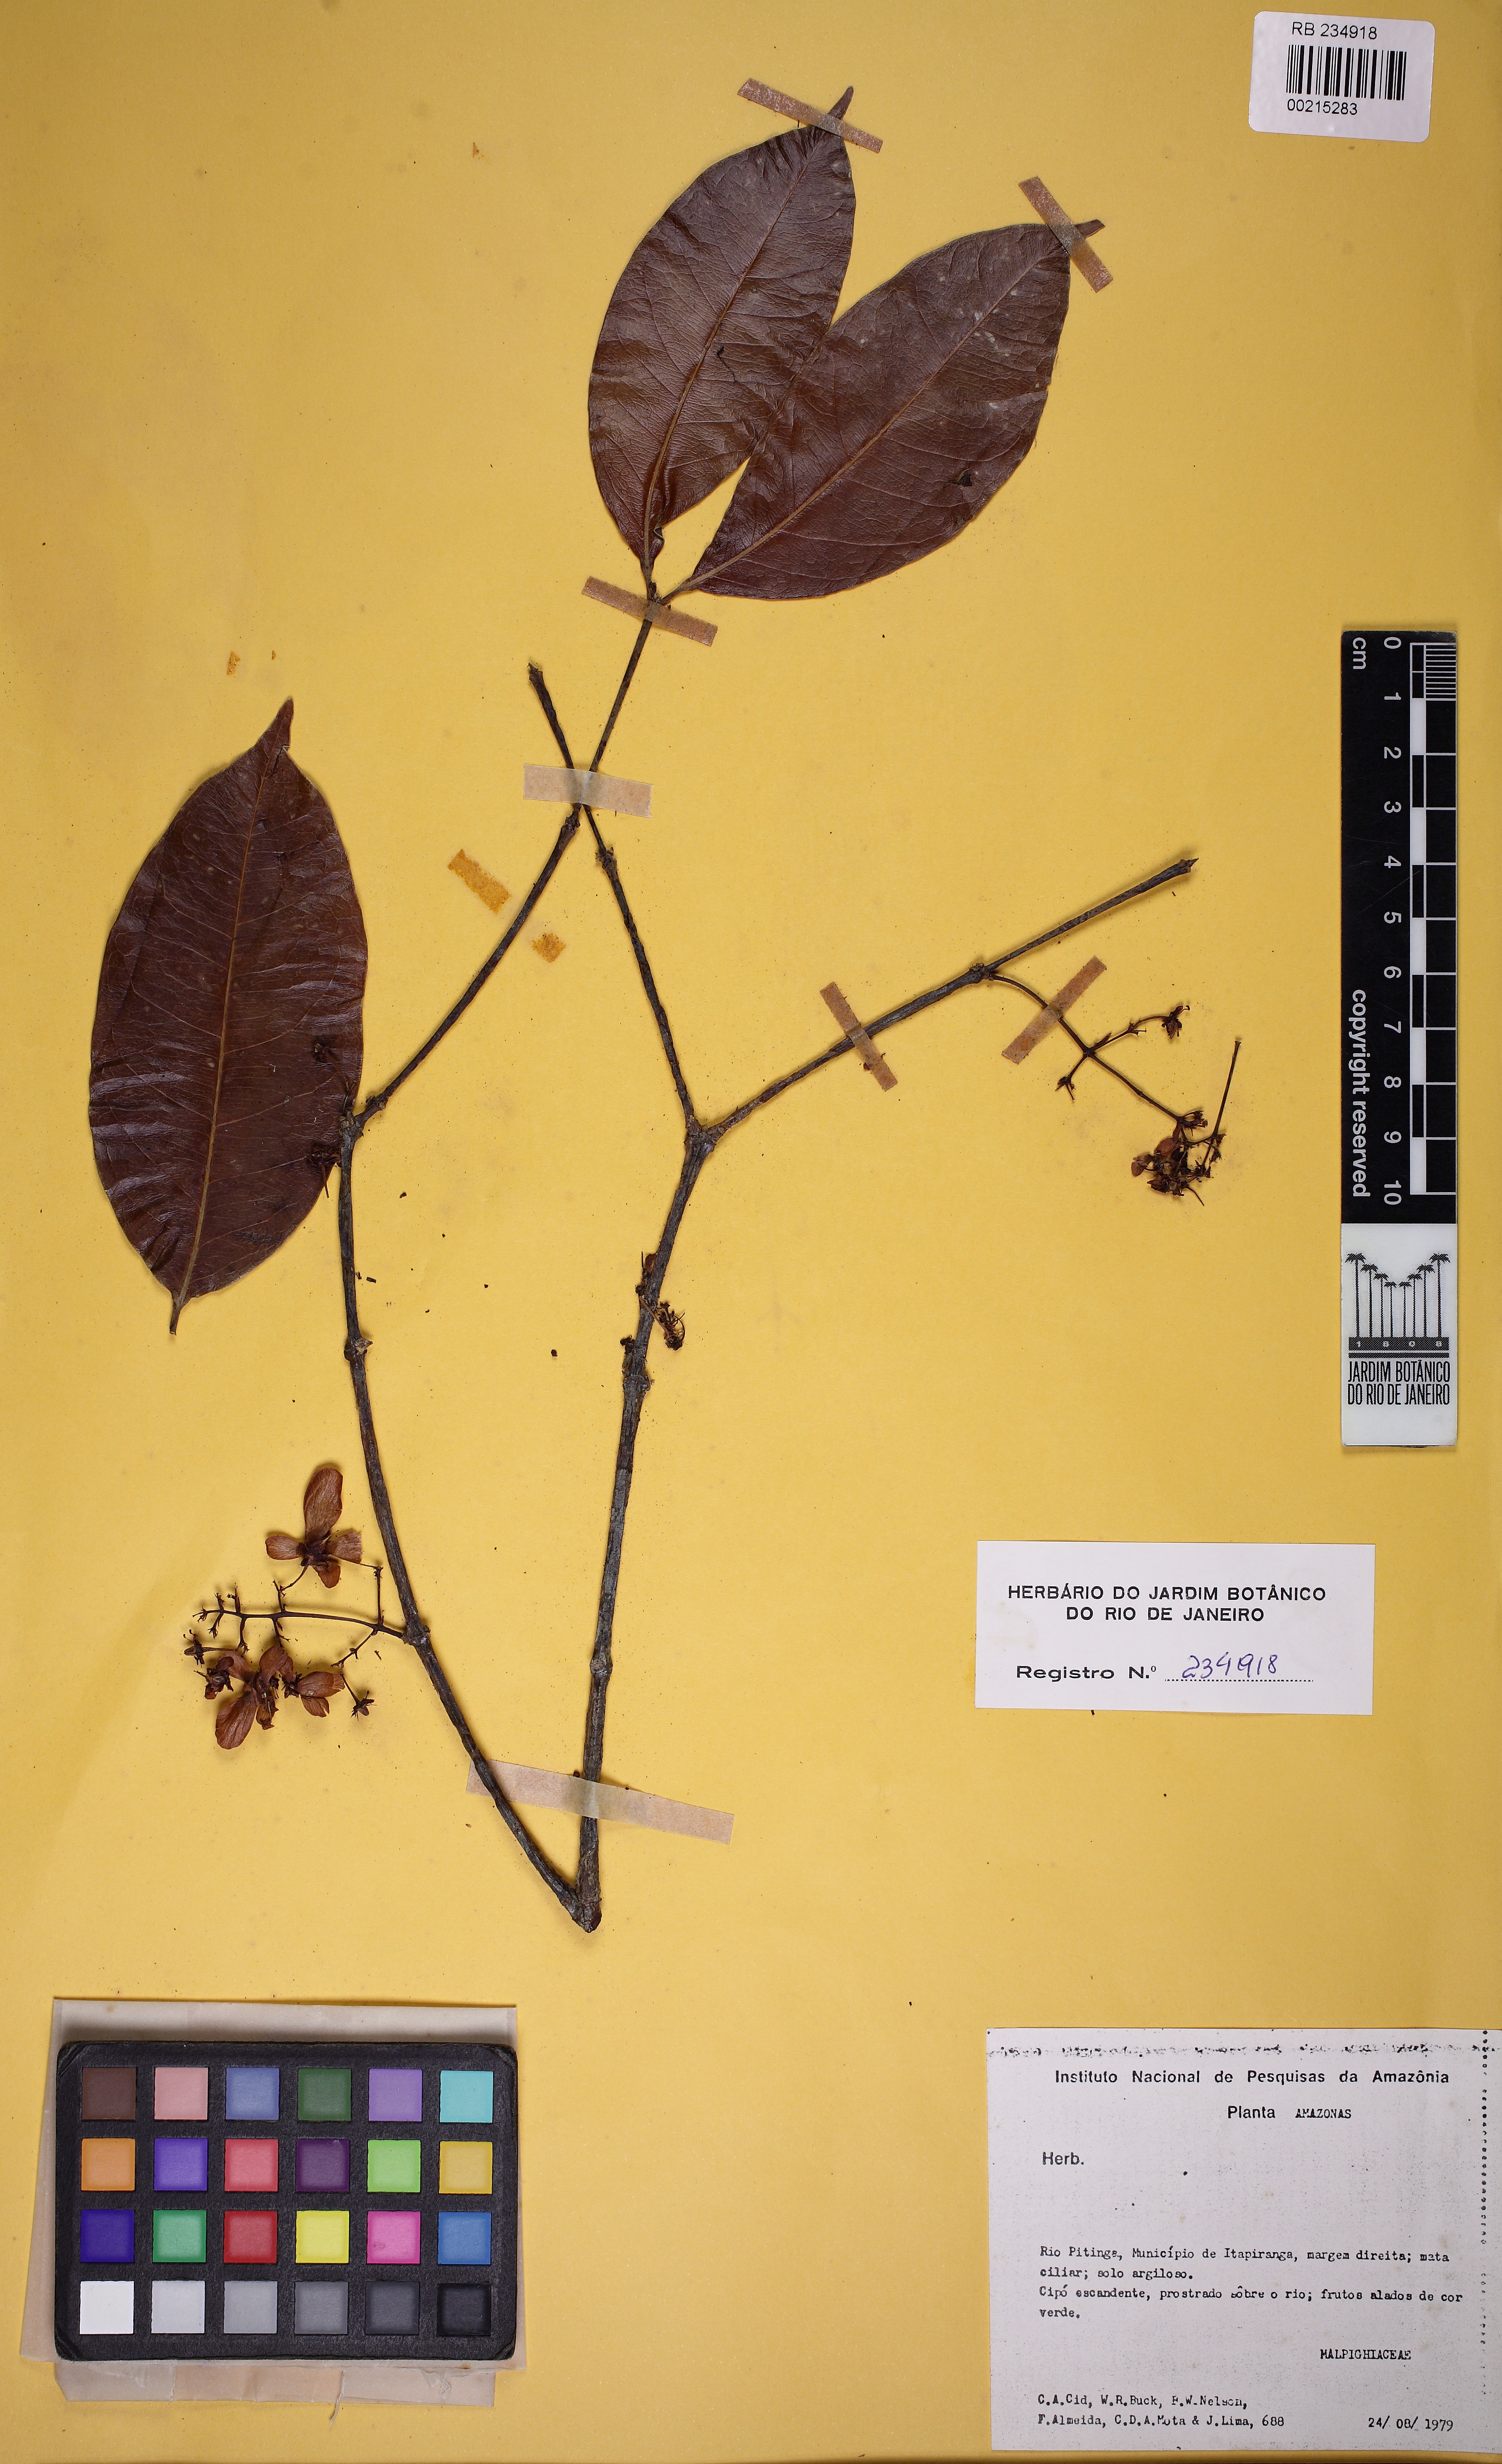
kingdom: Plantae
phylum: Tracheophyta
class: Magnoliopsida
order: Malpighiales
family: Malpighiaceae
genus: Tetrapterys
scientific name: Tetrapterys
